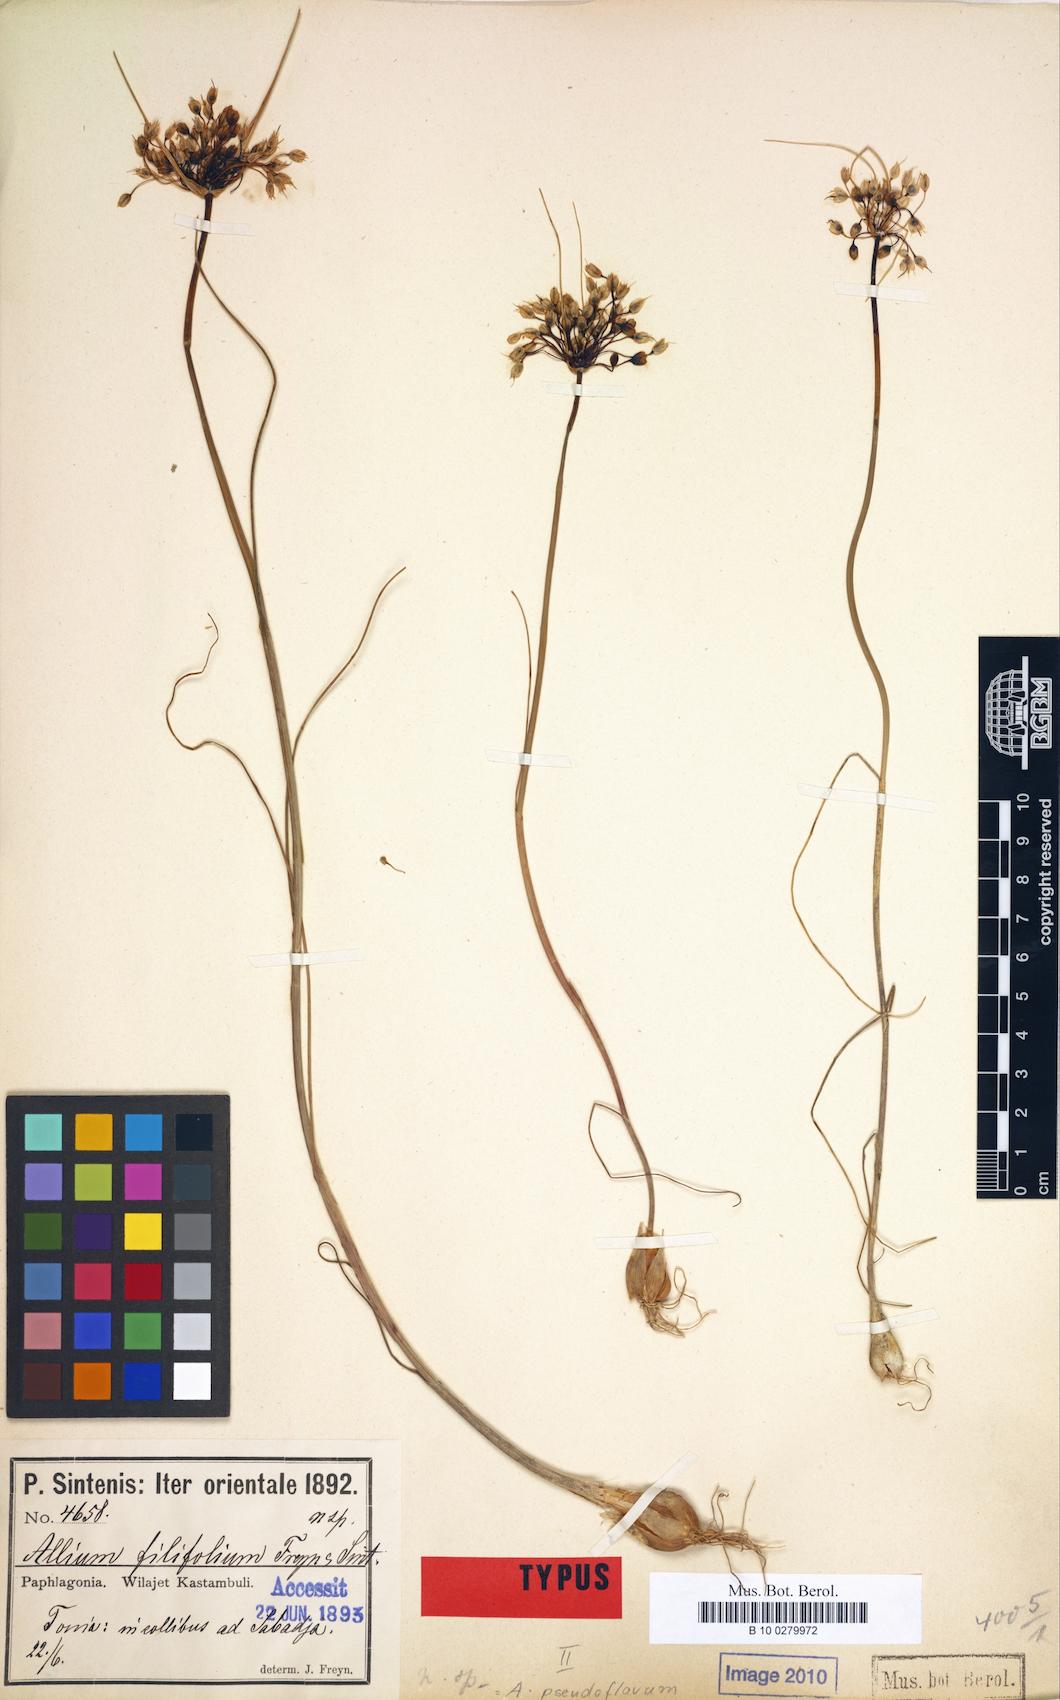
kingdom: Plantae
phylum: Tracheophyta
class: Liliopsida
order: Asparagales
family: Amaryllidaceae
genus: Allium
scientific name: Allium pseudoflavum
